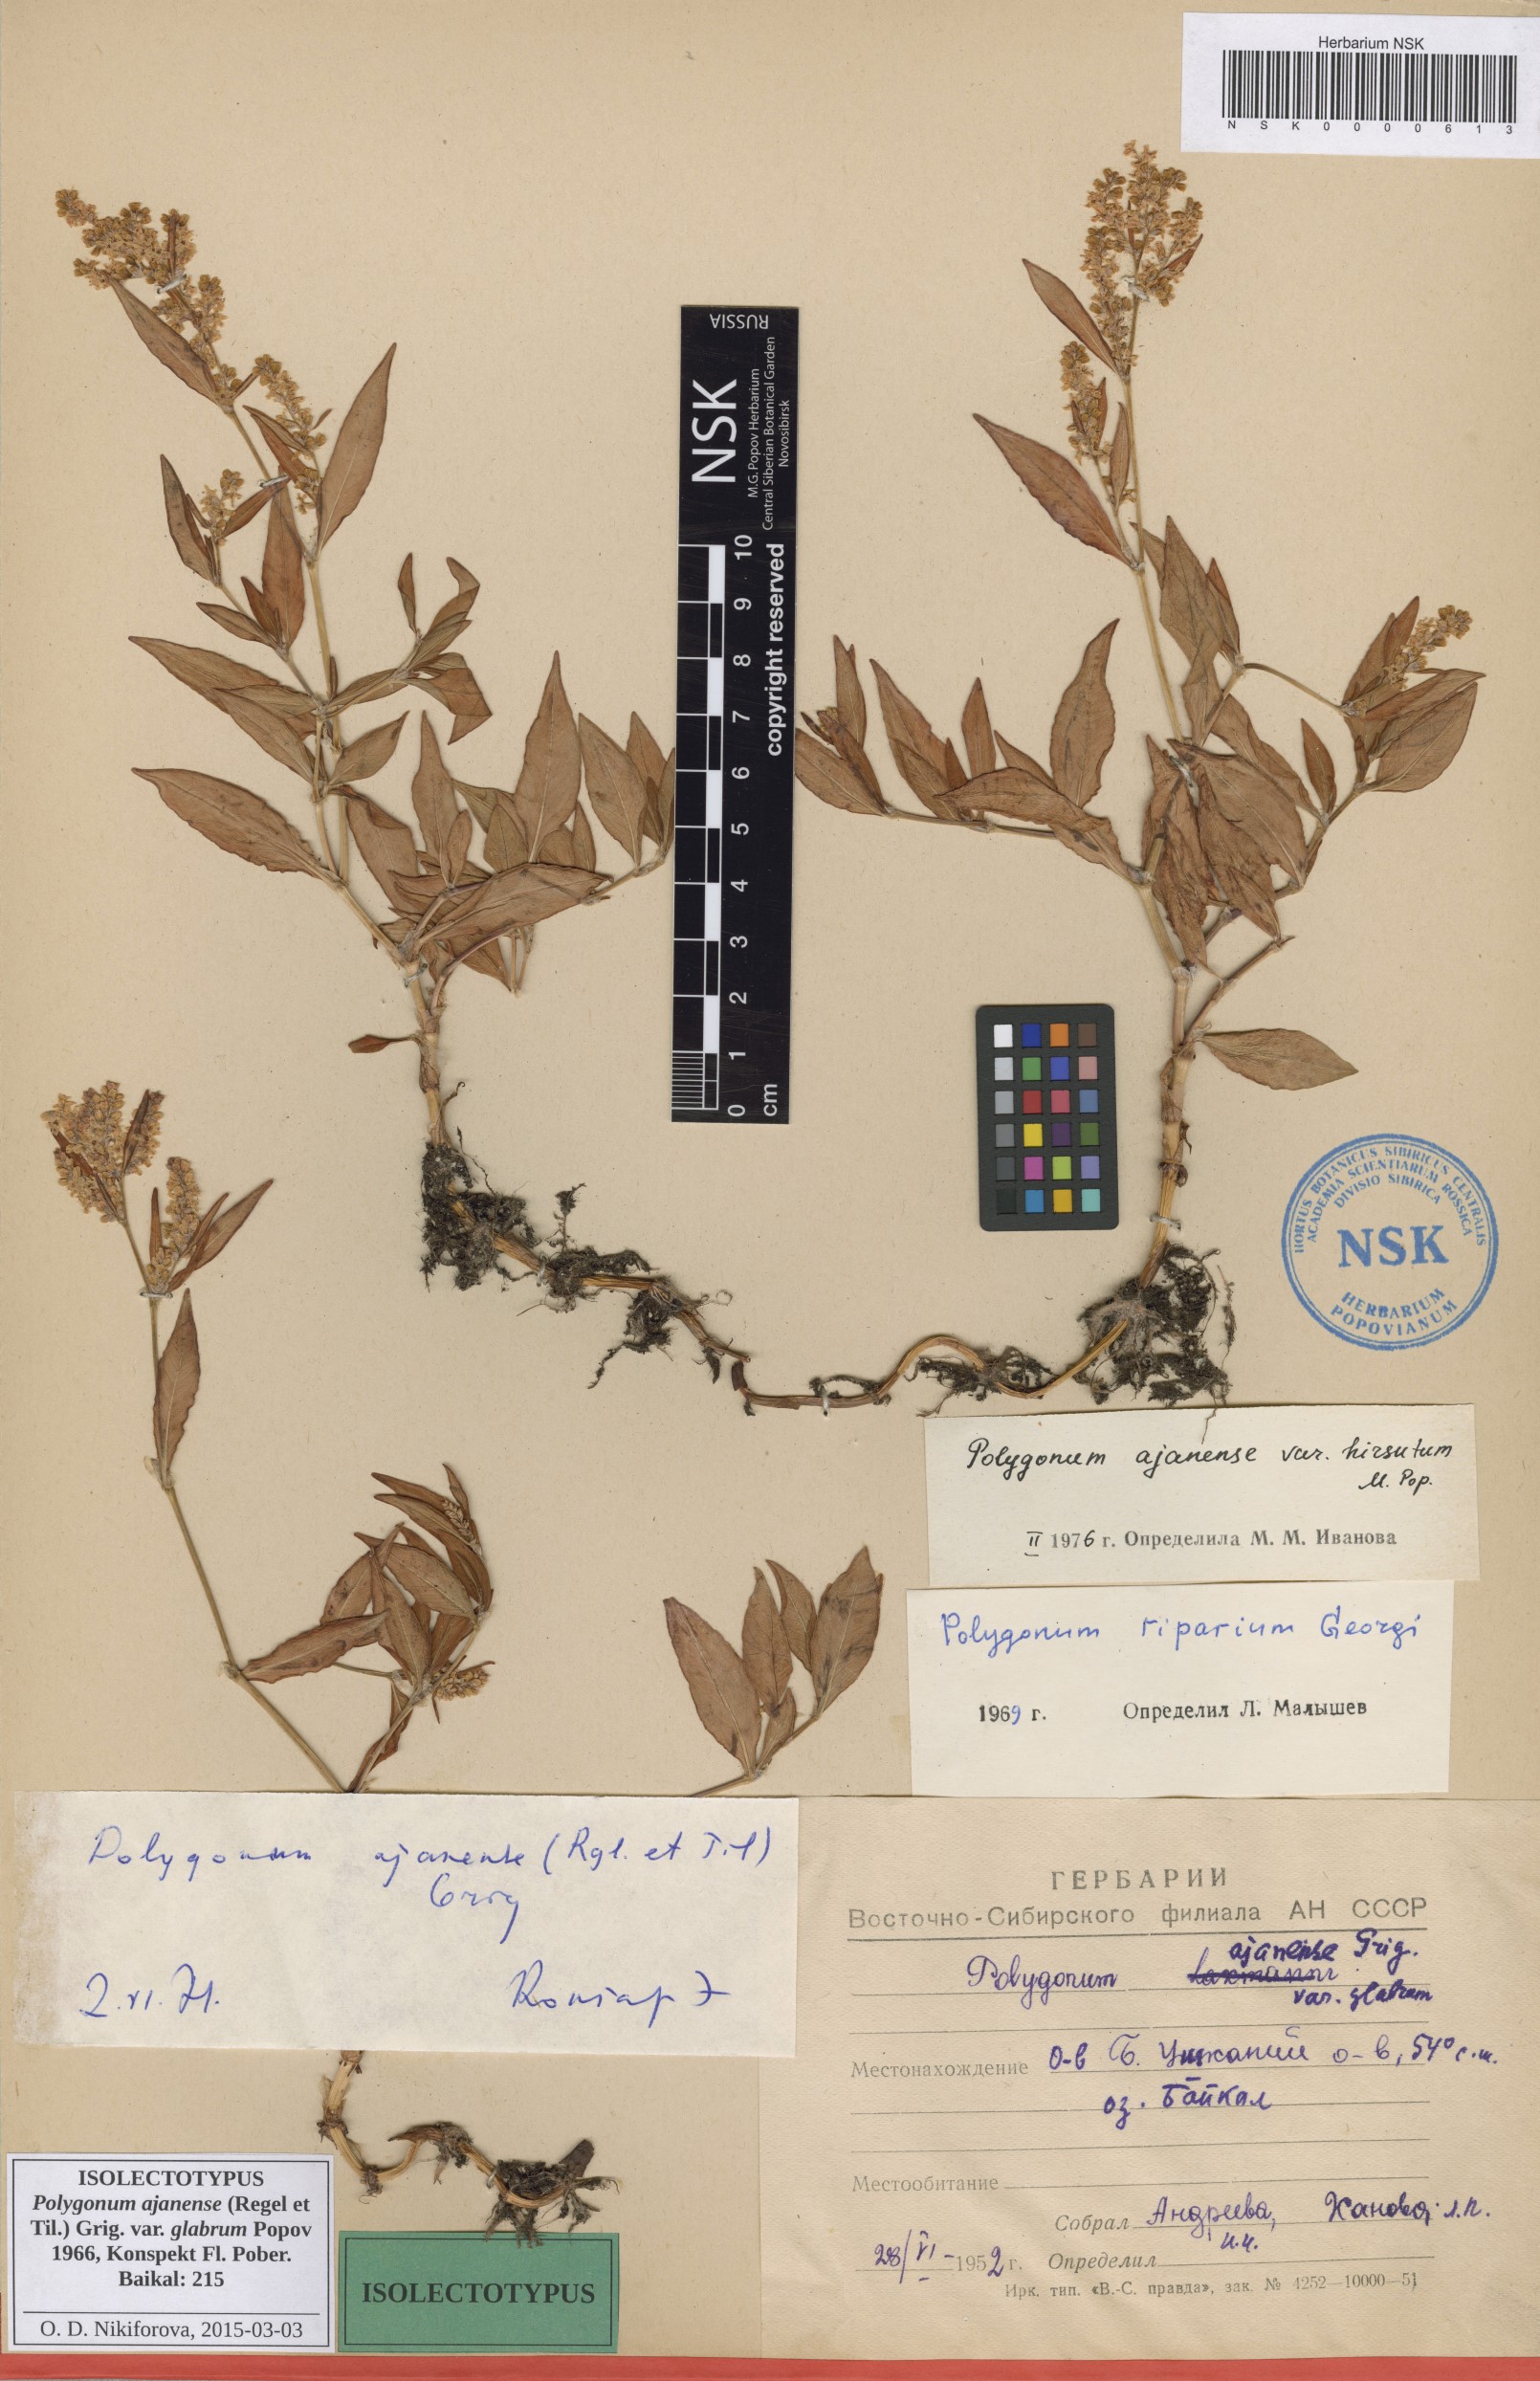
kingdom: Plantae
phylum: Tracheophyta
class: Magnoliopsida
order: Caryophyllales
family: Polygonaceae
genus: Polygonum
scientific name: Polygonum ajanense
